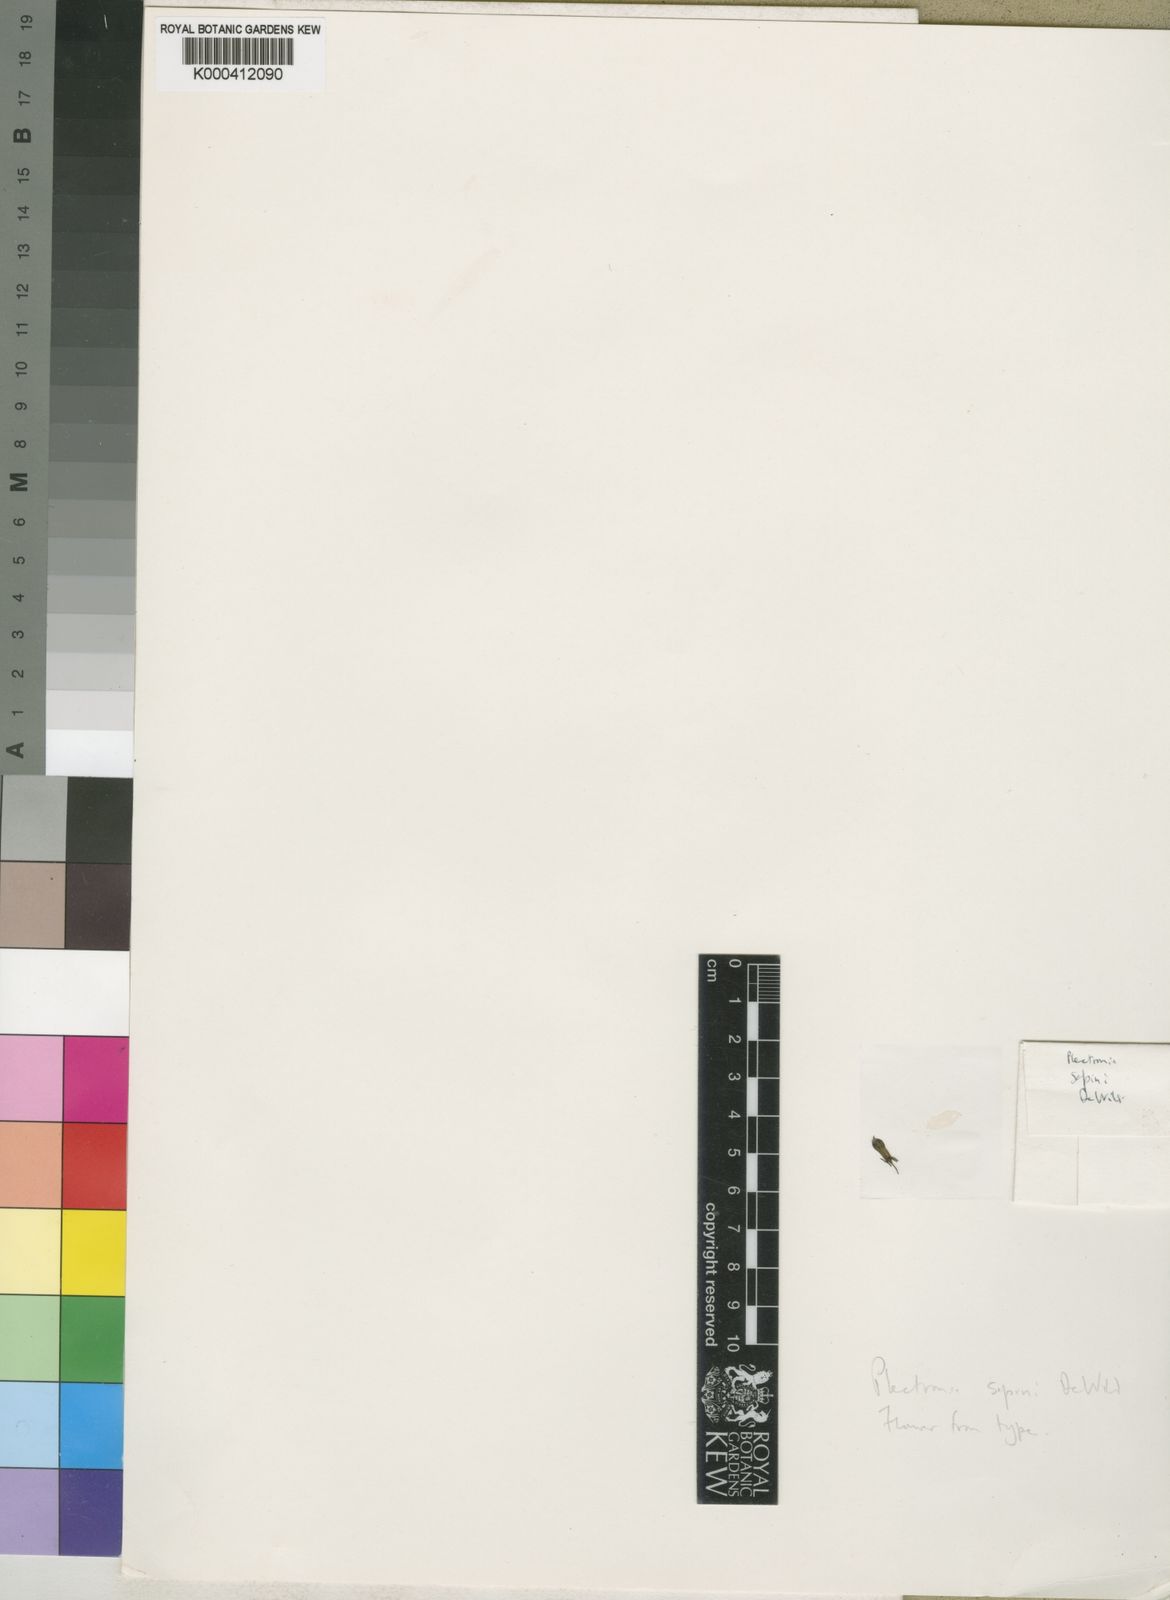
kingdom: Plantae
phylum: Tracheophyta
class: Magnoliopsida
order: Gentianales
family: Rubiaceae
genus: Vangueriella
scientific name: Vangueriella sapinii
